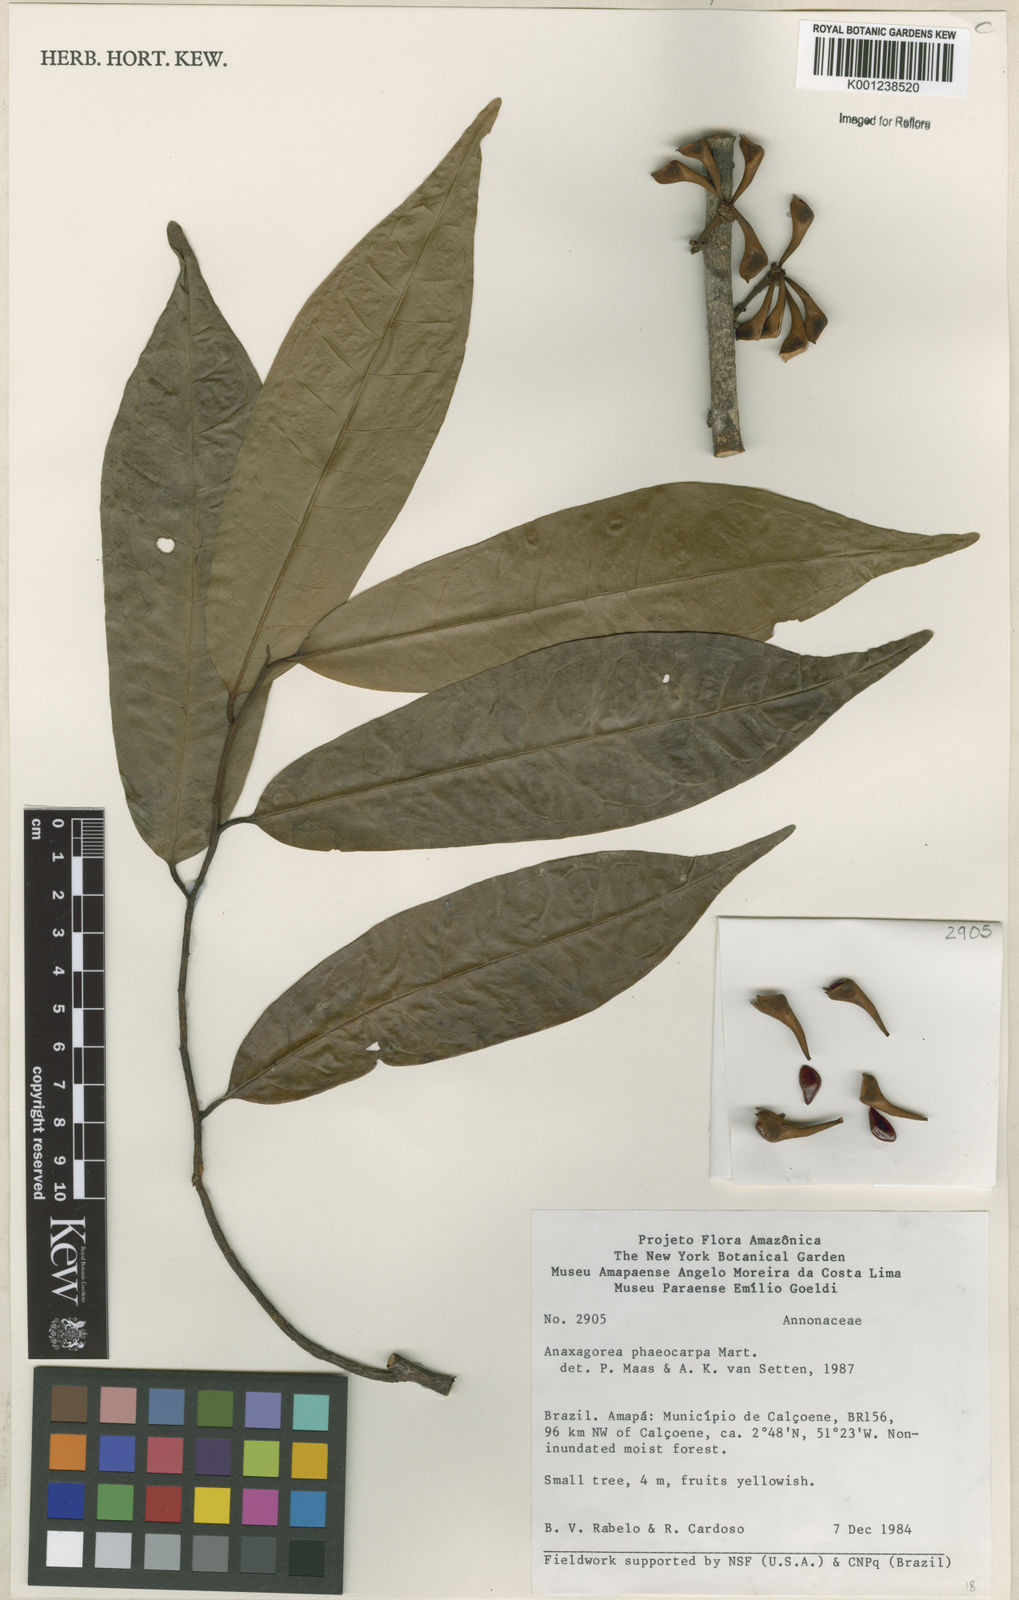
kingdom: Plantae
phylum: Tracheophyta
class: Magnoliopsida
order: Magnoliales
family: Annonaceae
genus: Anaxagorea
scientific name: Anaxagorea phaeocarpa
